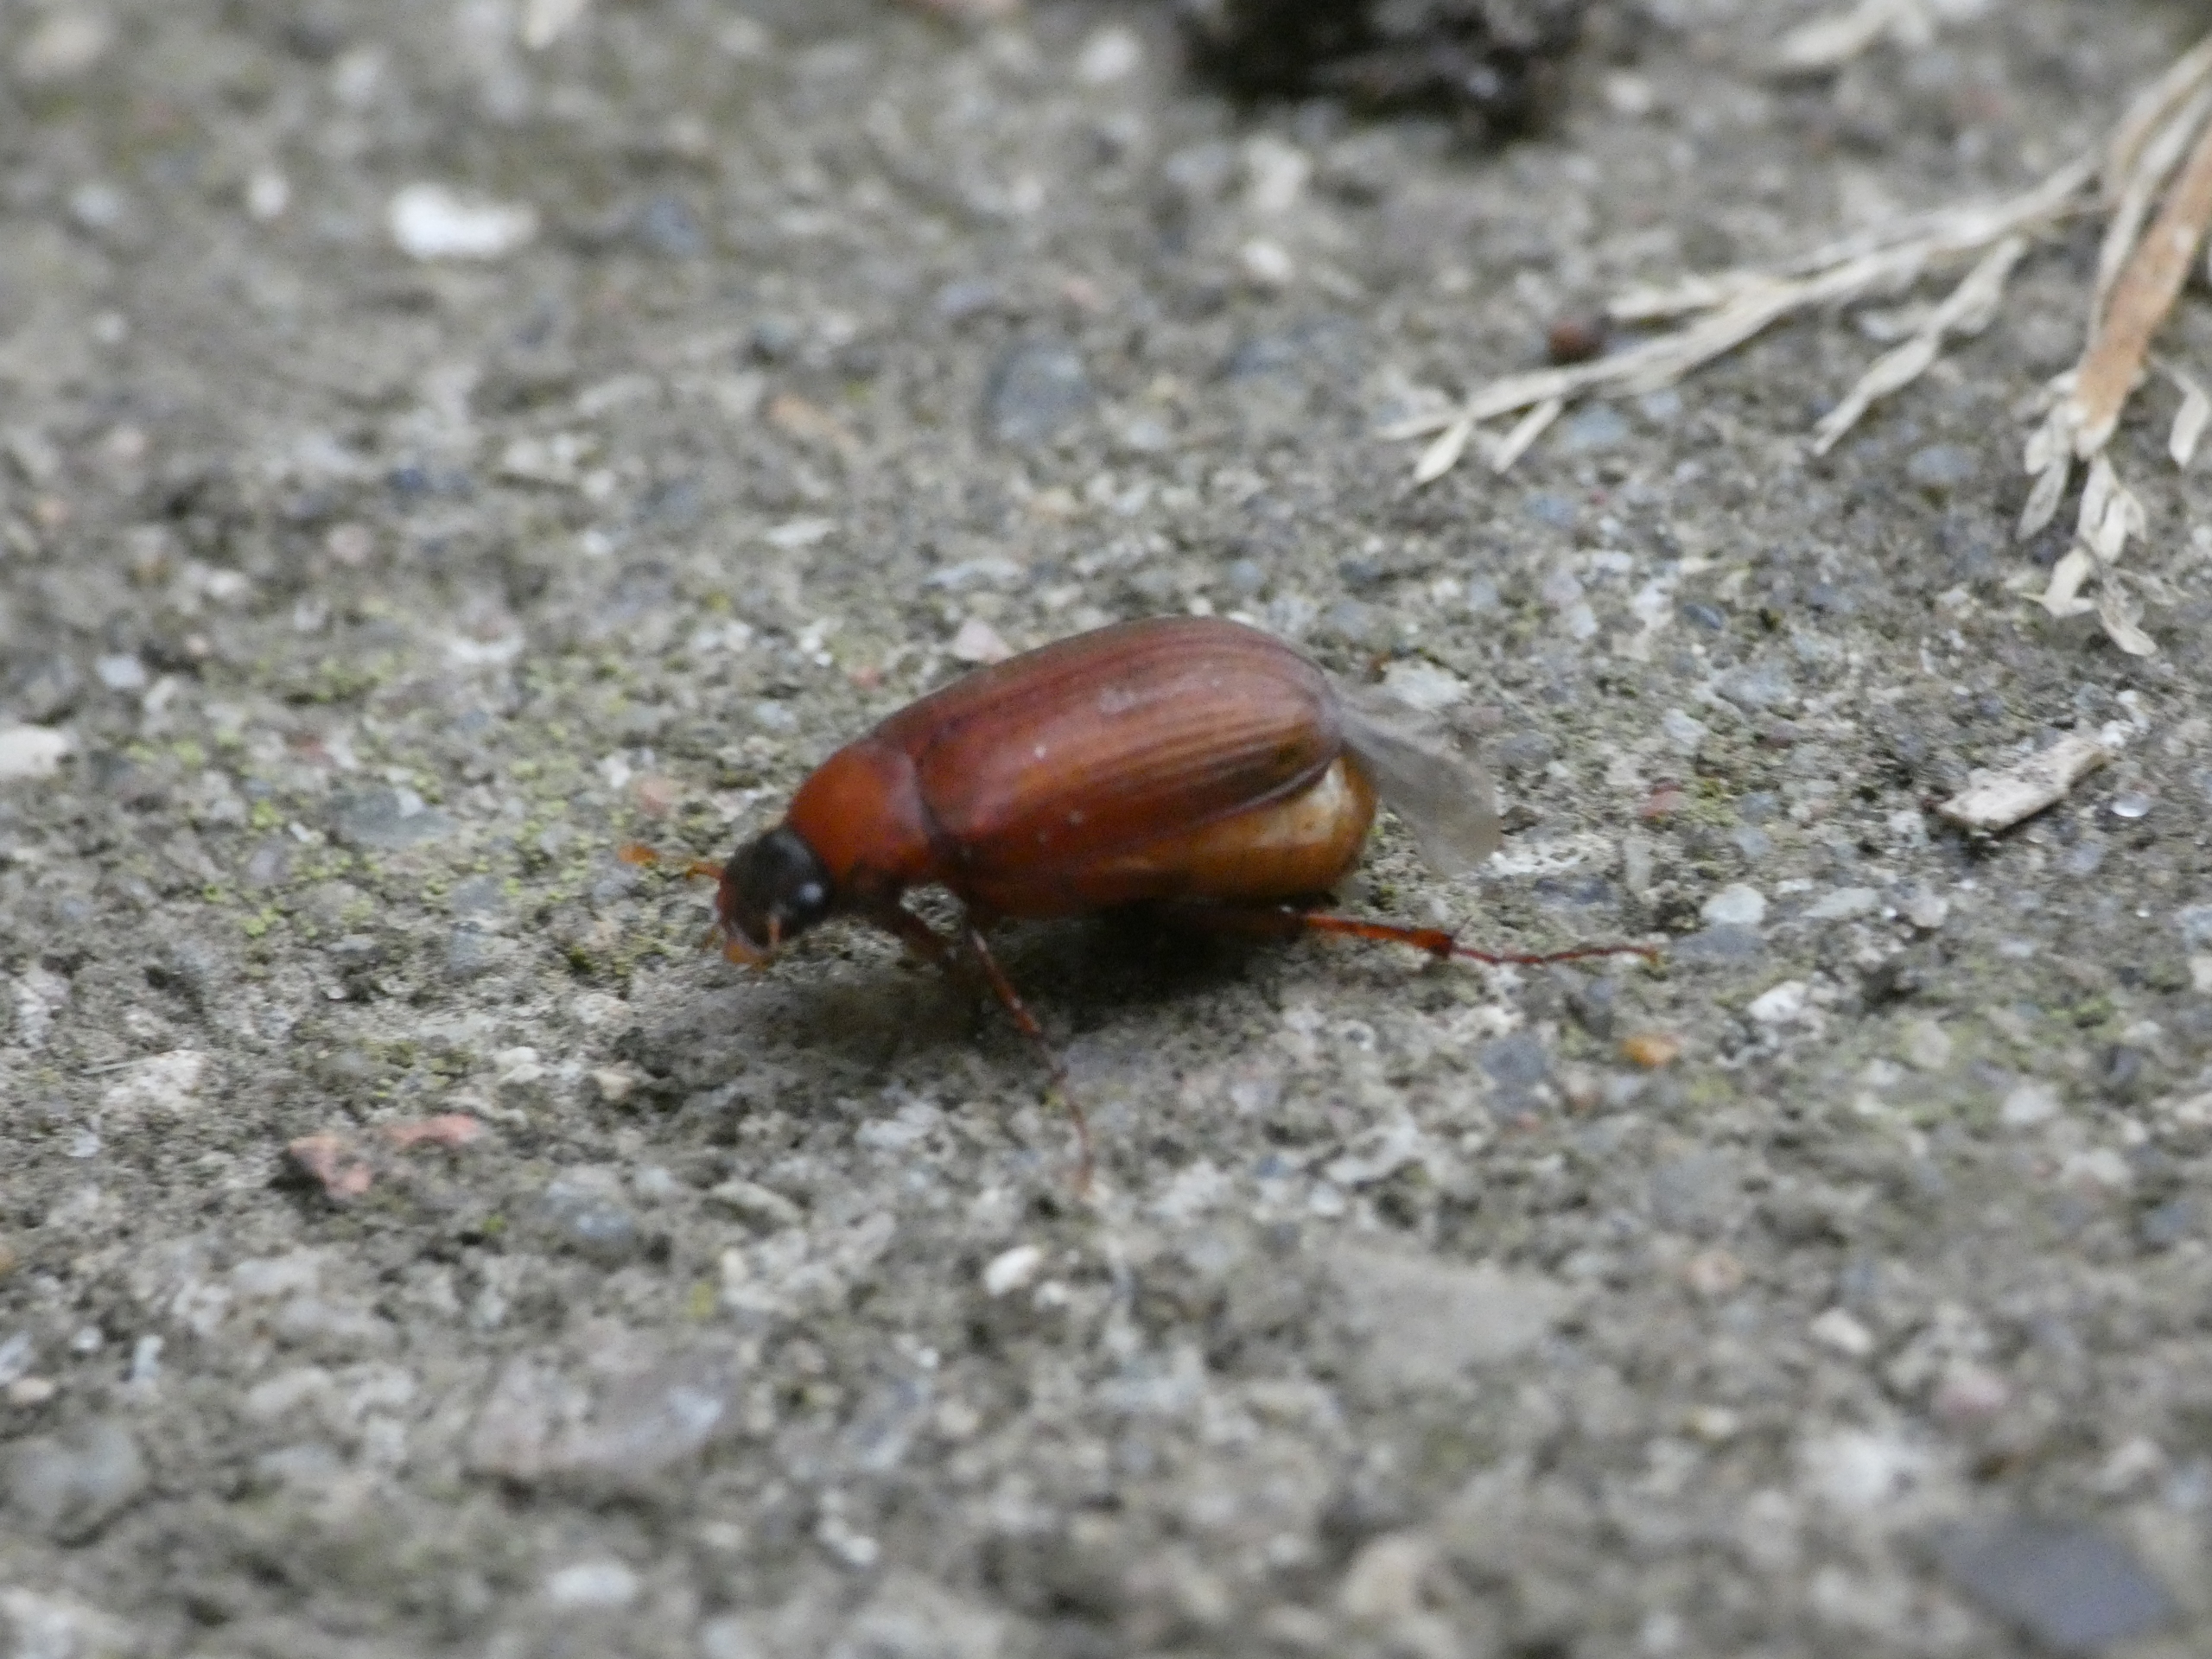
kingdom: Animalia
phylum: Arthropoda
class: Insecta
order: Coleoptera
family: Scarabaeidae
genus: Serica
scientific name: Serica brunnea
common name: Natoldenborre
